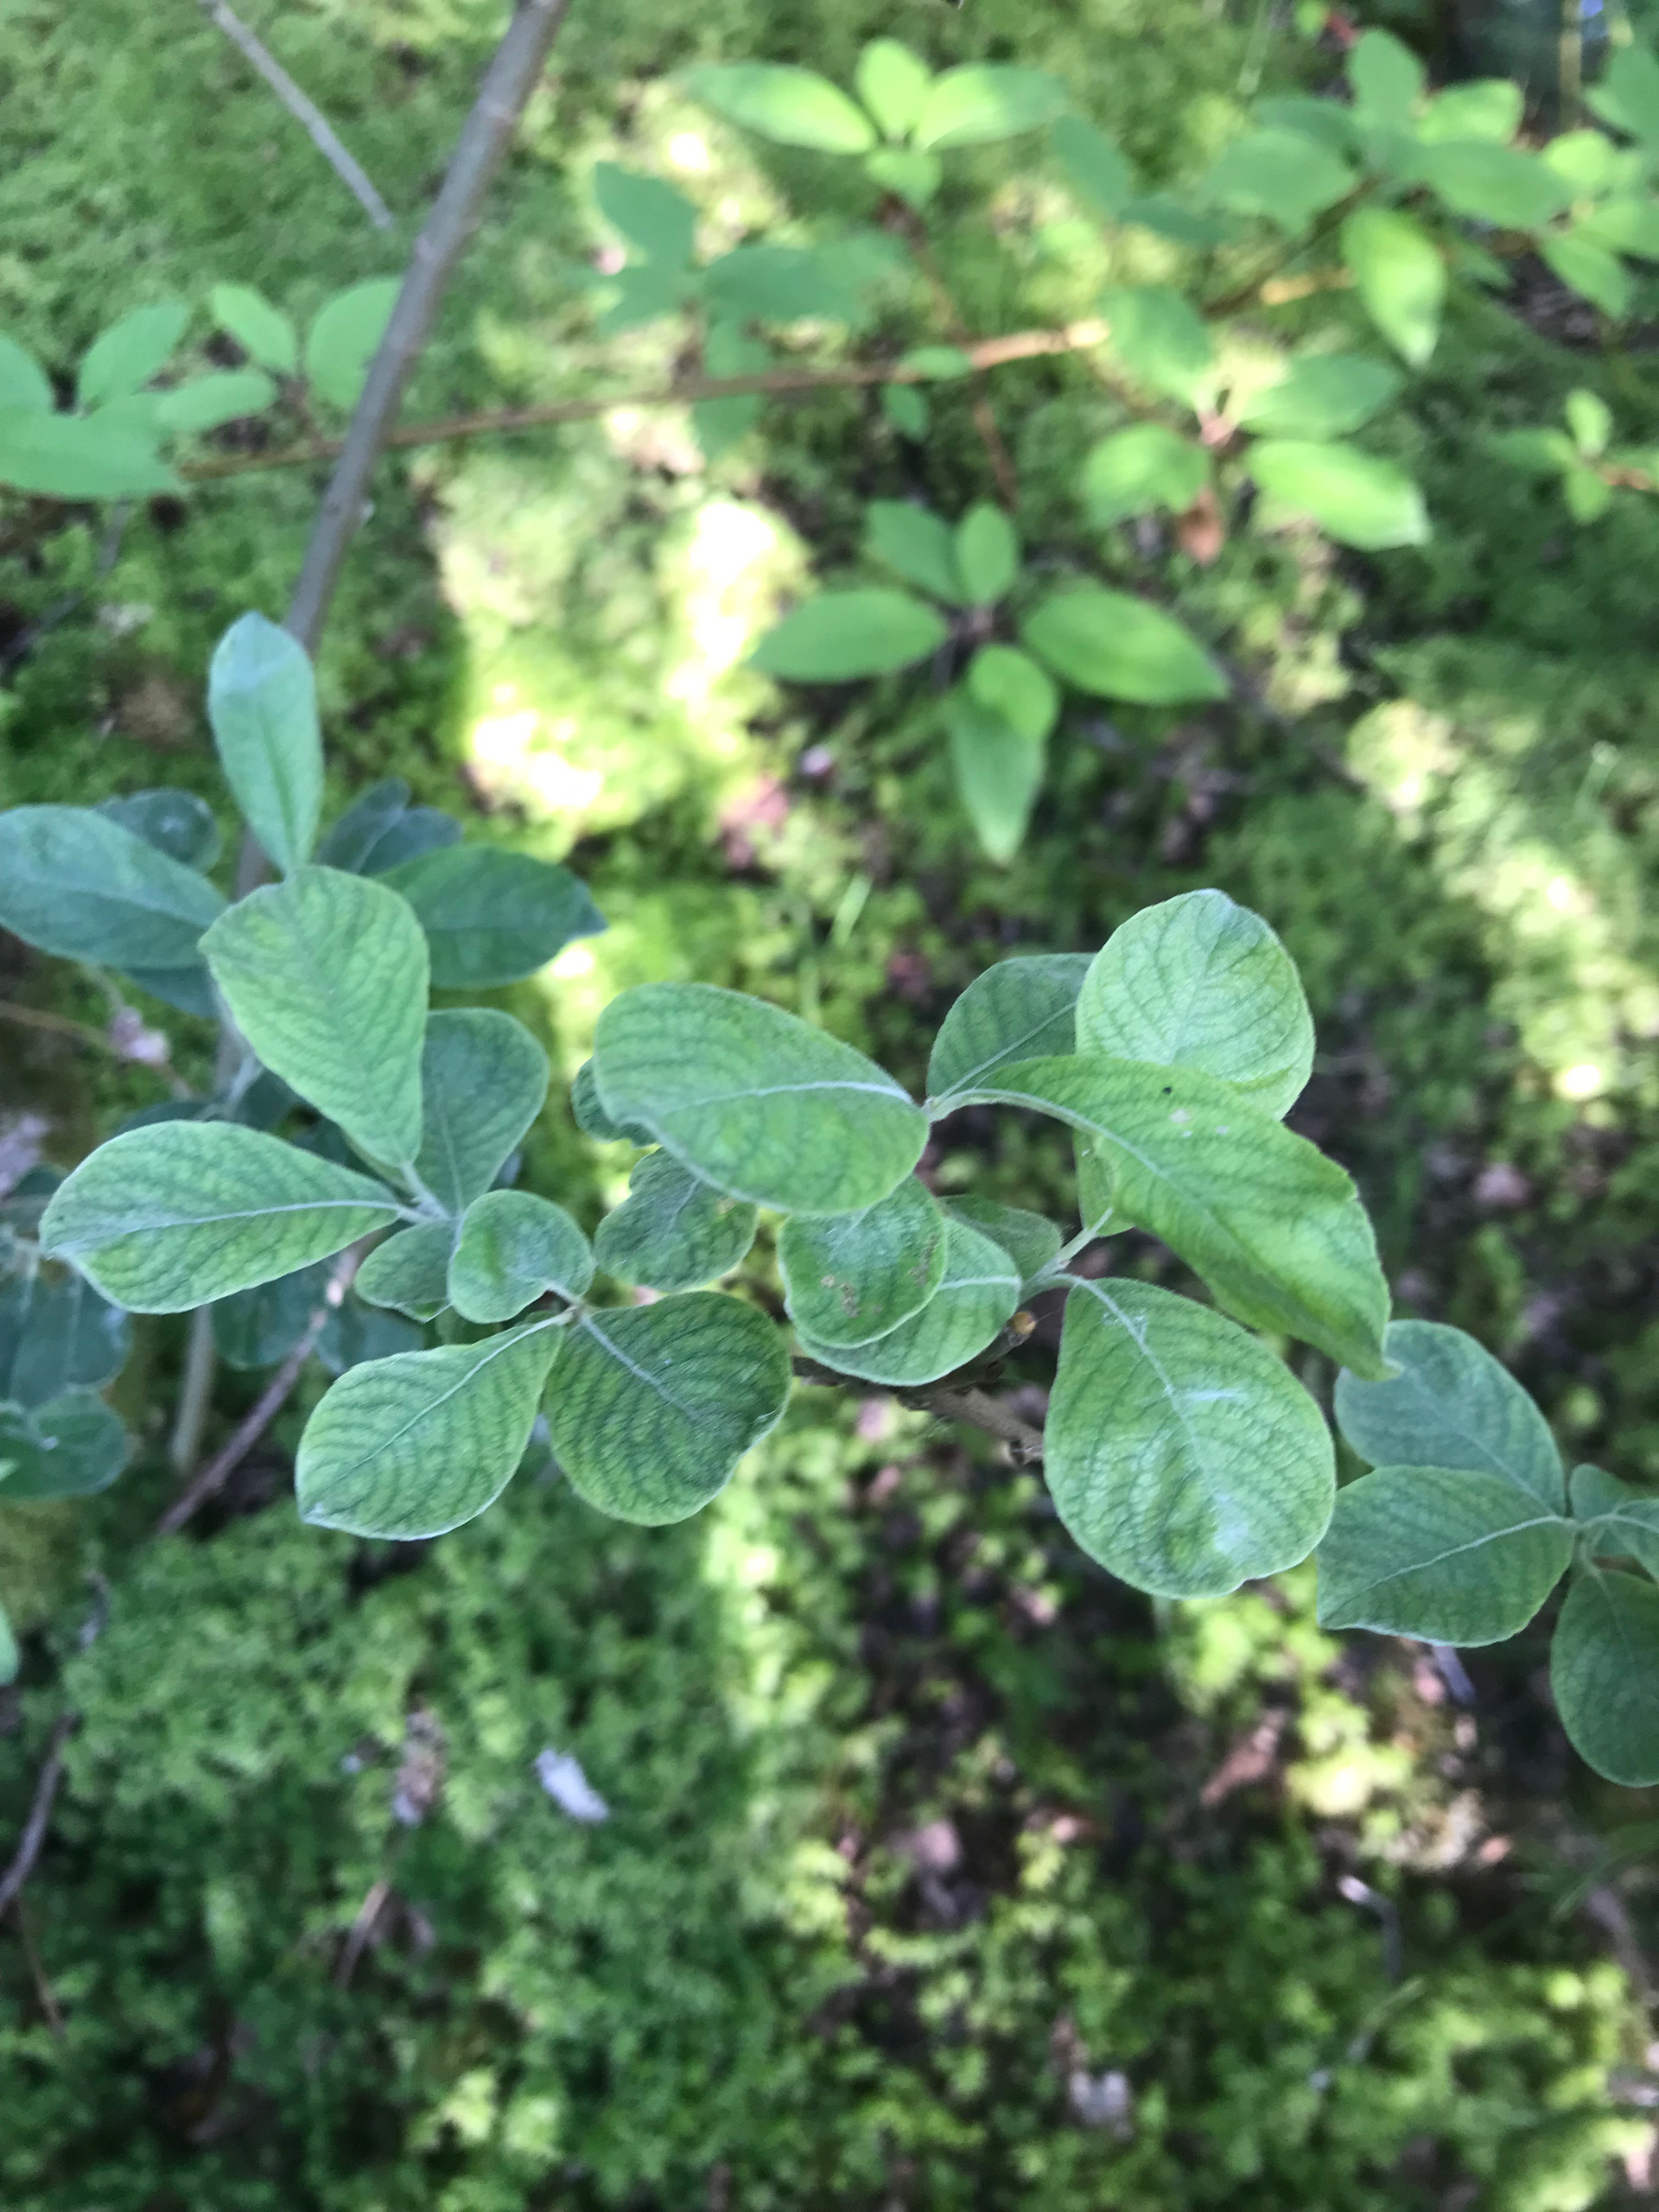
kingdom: Plantae
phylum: Tracheophyta
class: Magnoliopsida
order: Malpighiales
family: Salicaceae
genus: Salix
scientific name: Salix aurita
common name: Øret pil
